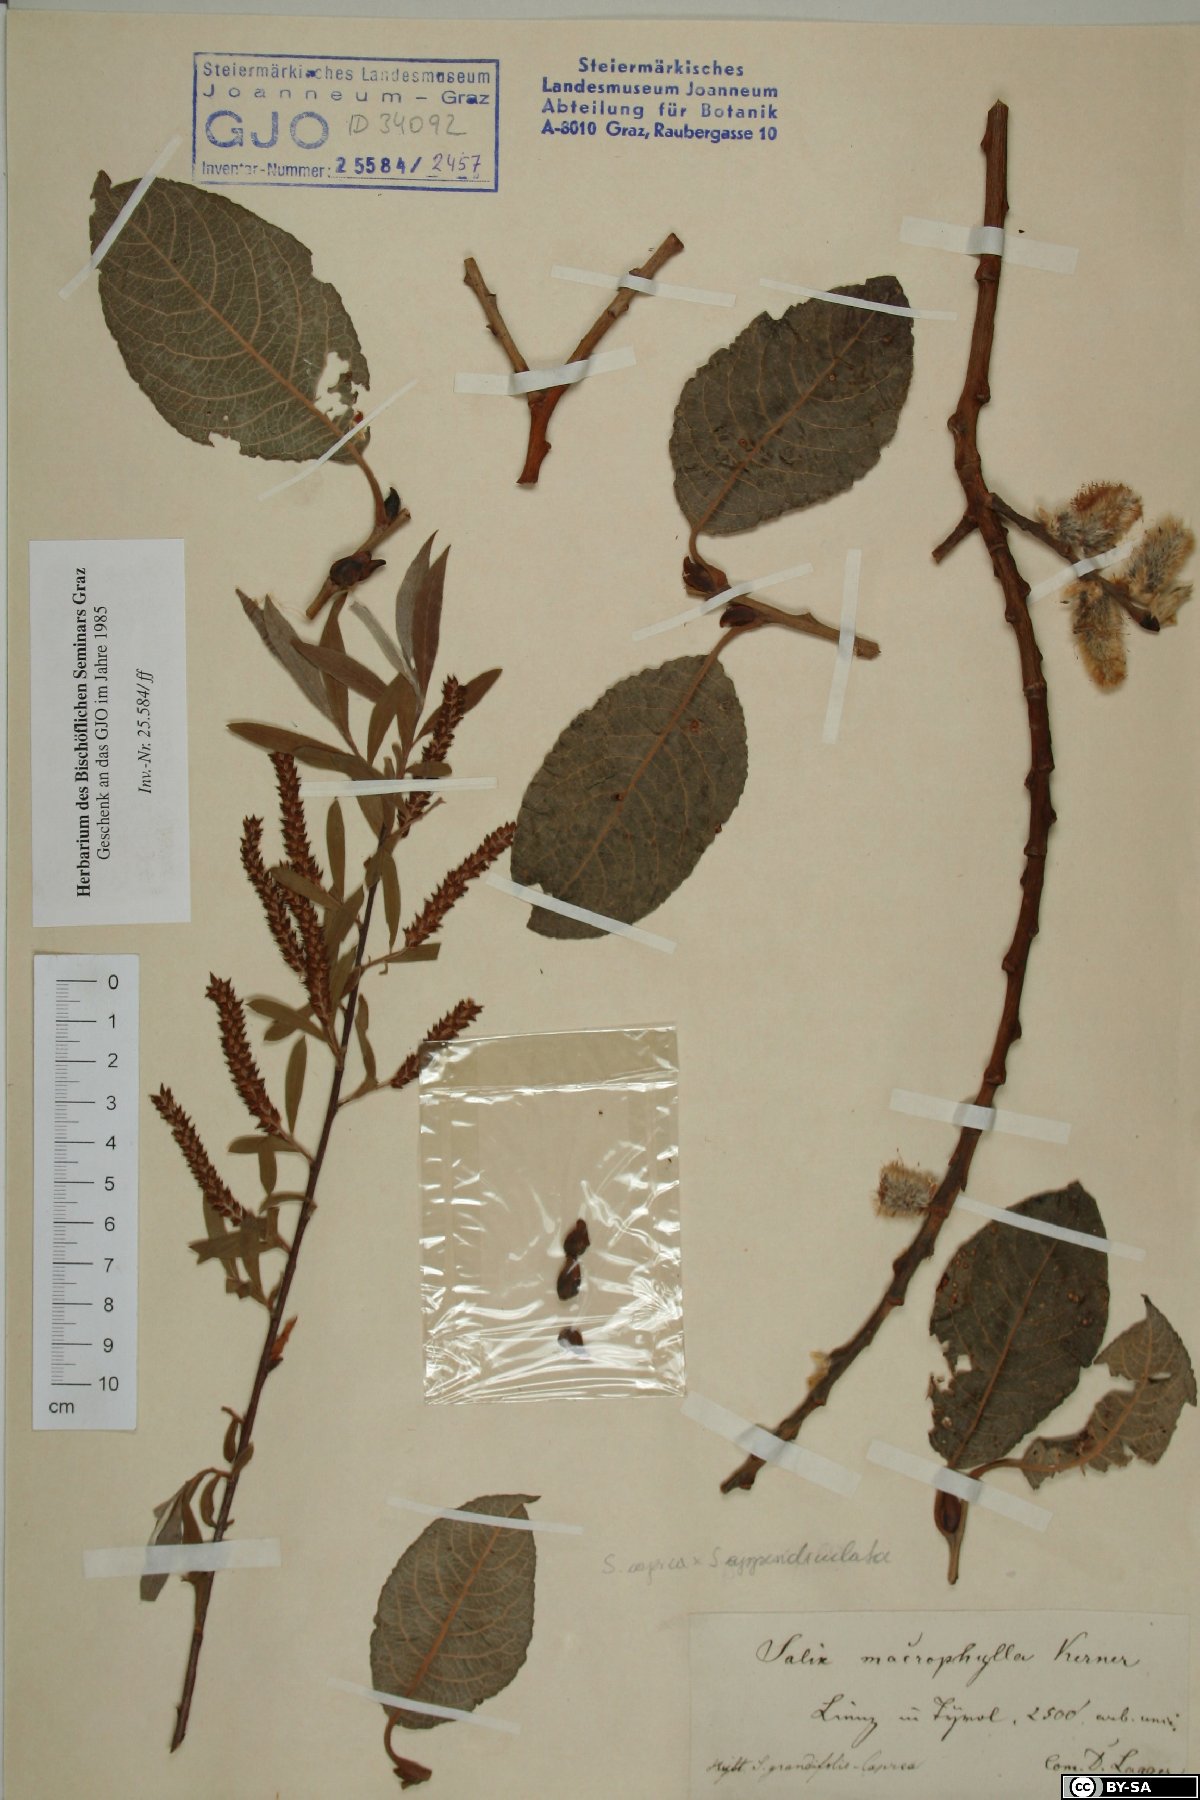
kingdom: Plantae
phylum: Tracheophyta
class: Magnoliopsida
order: Malpighiales
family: Salicaceae
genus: Salix
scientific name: Salix macrophylla
